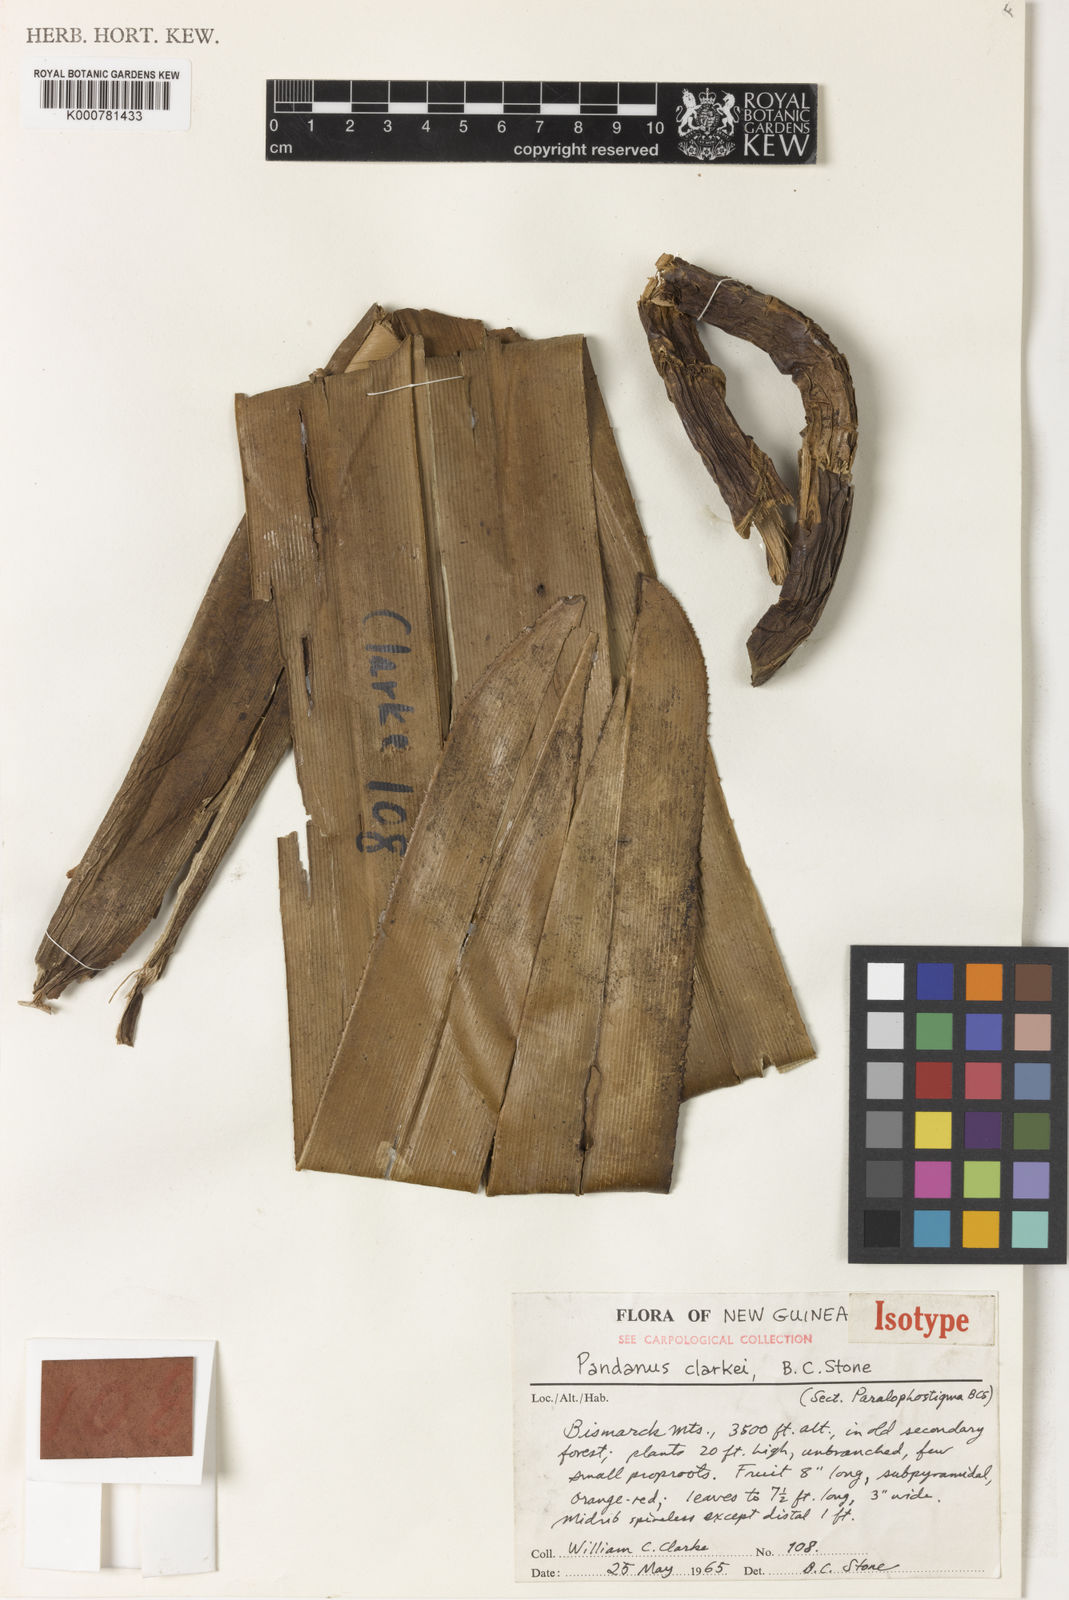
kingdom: Plantae
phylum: Tracheophyta
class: Liliopsida
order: Pandanales
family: Pandanaceae
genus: Pandanus
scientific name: Pandanus clarkei
